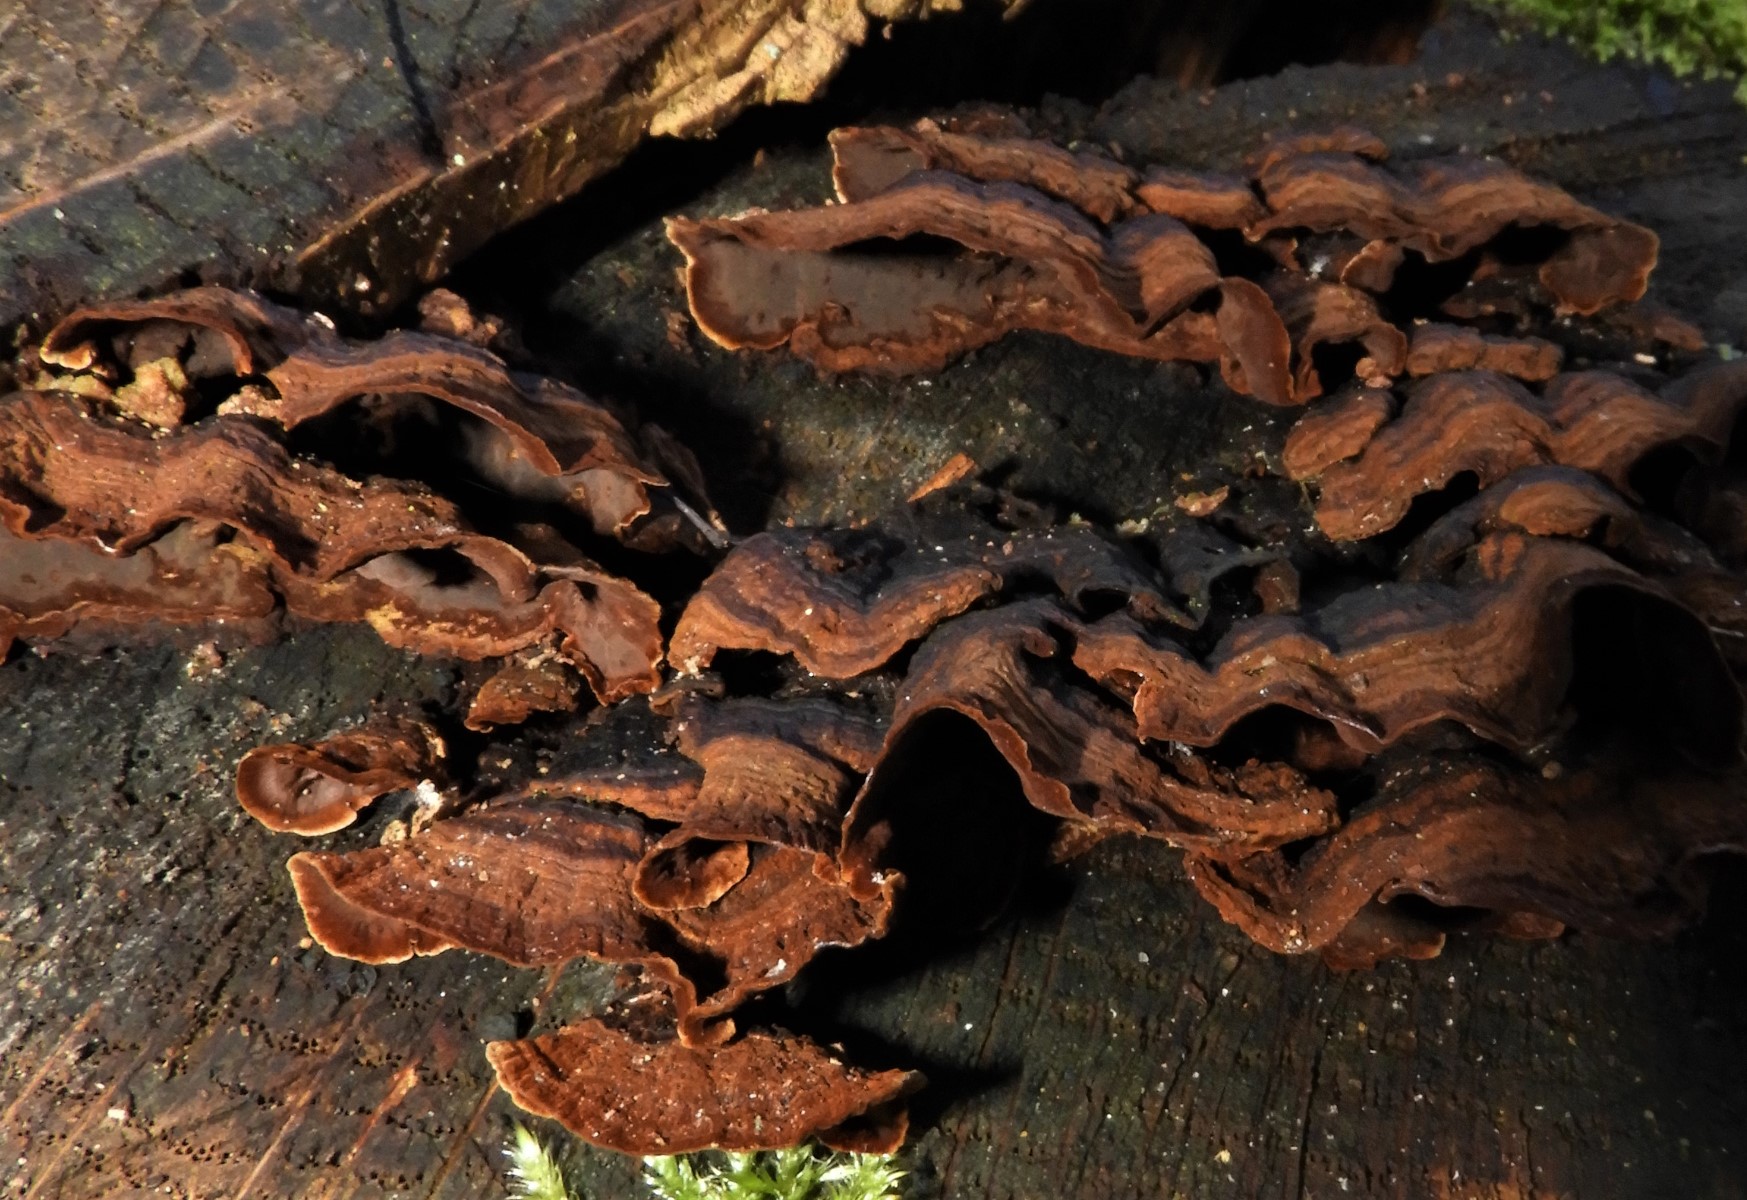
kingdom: Fungi
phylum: Basidiomycota
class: Agaricomycetes
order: Hymenochaetales
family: Hymenochaetaceae
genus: Hymenochaete
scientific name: Hymenochaete rubiginosa
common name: stiv ruslædersvamp
